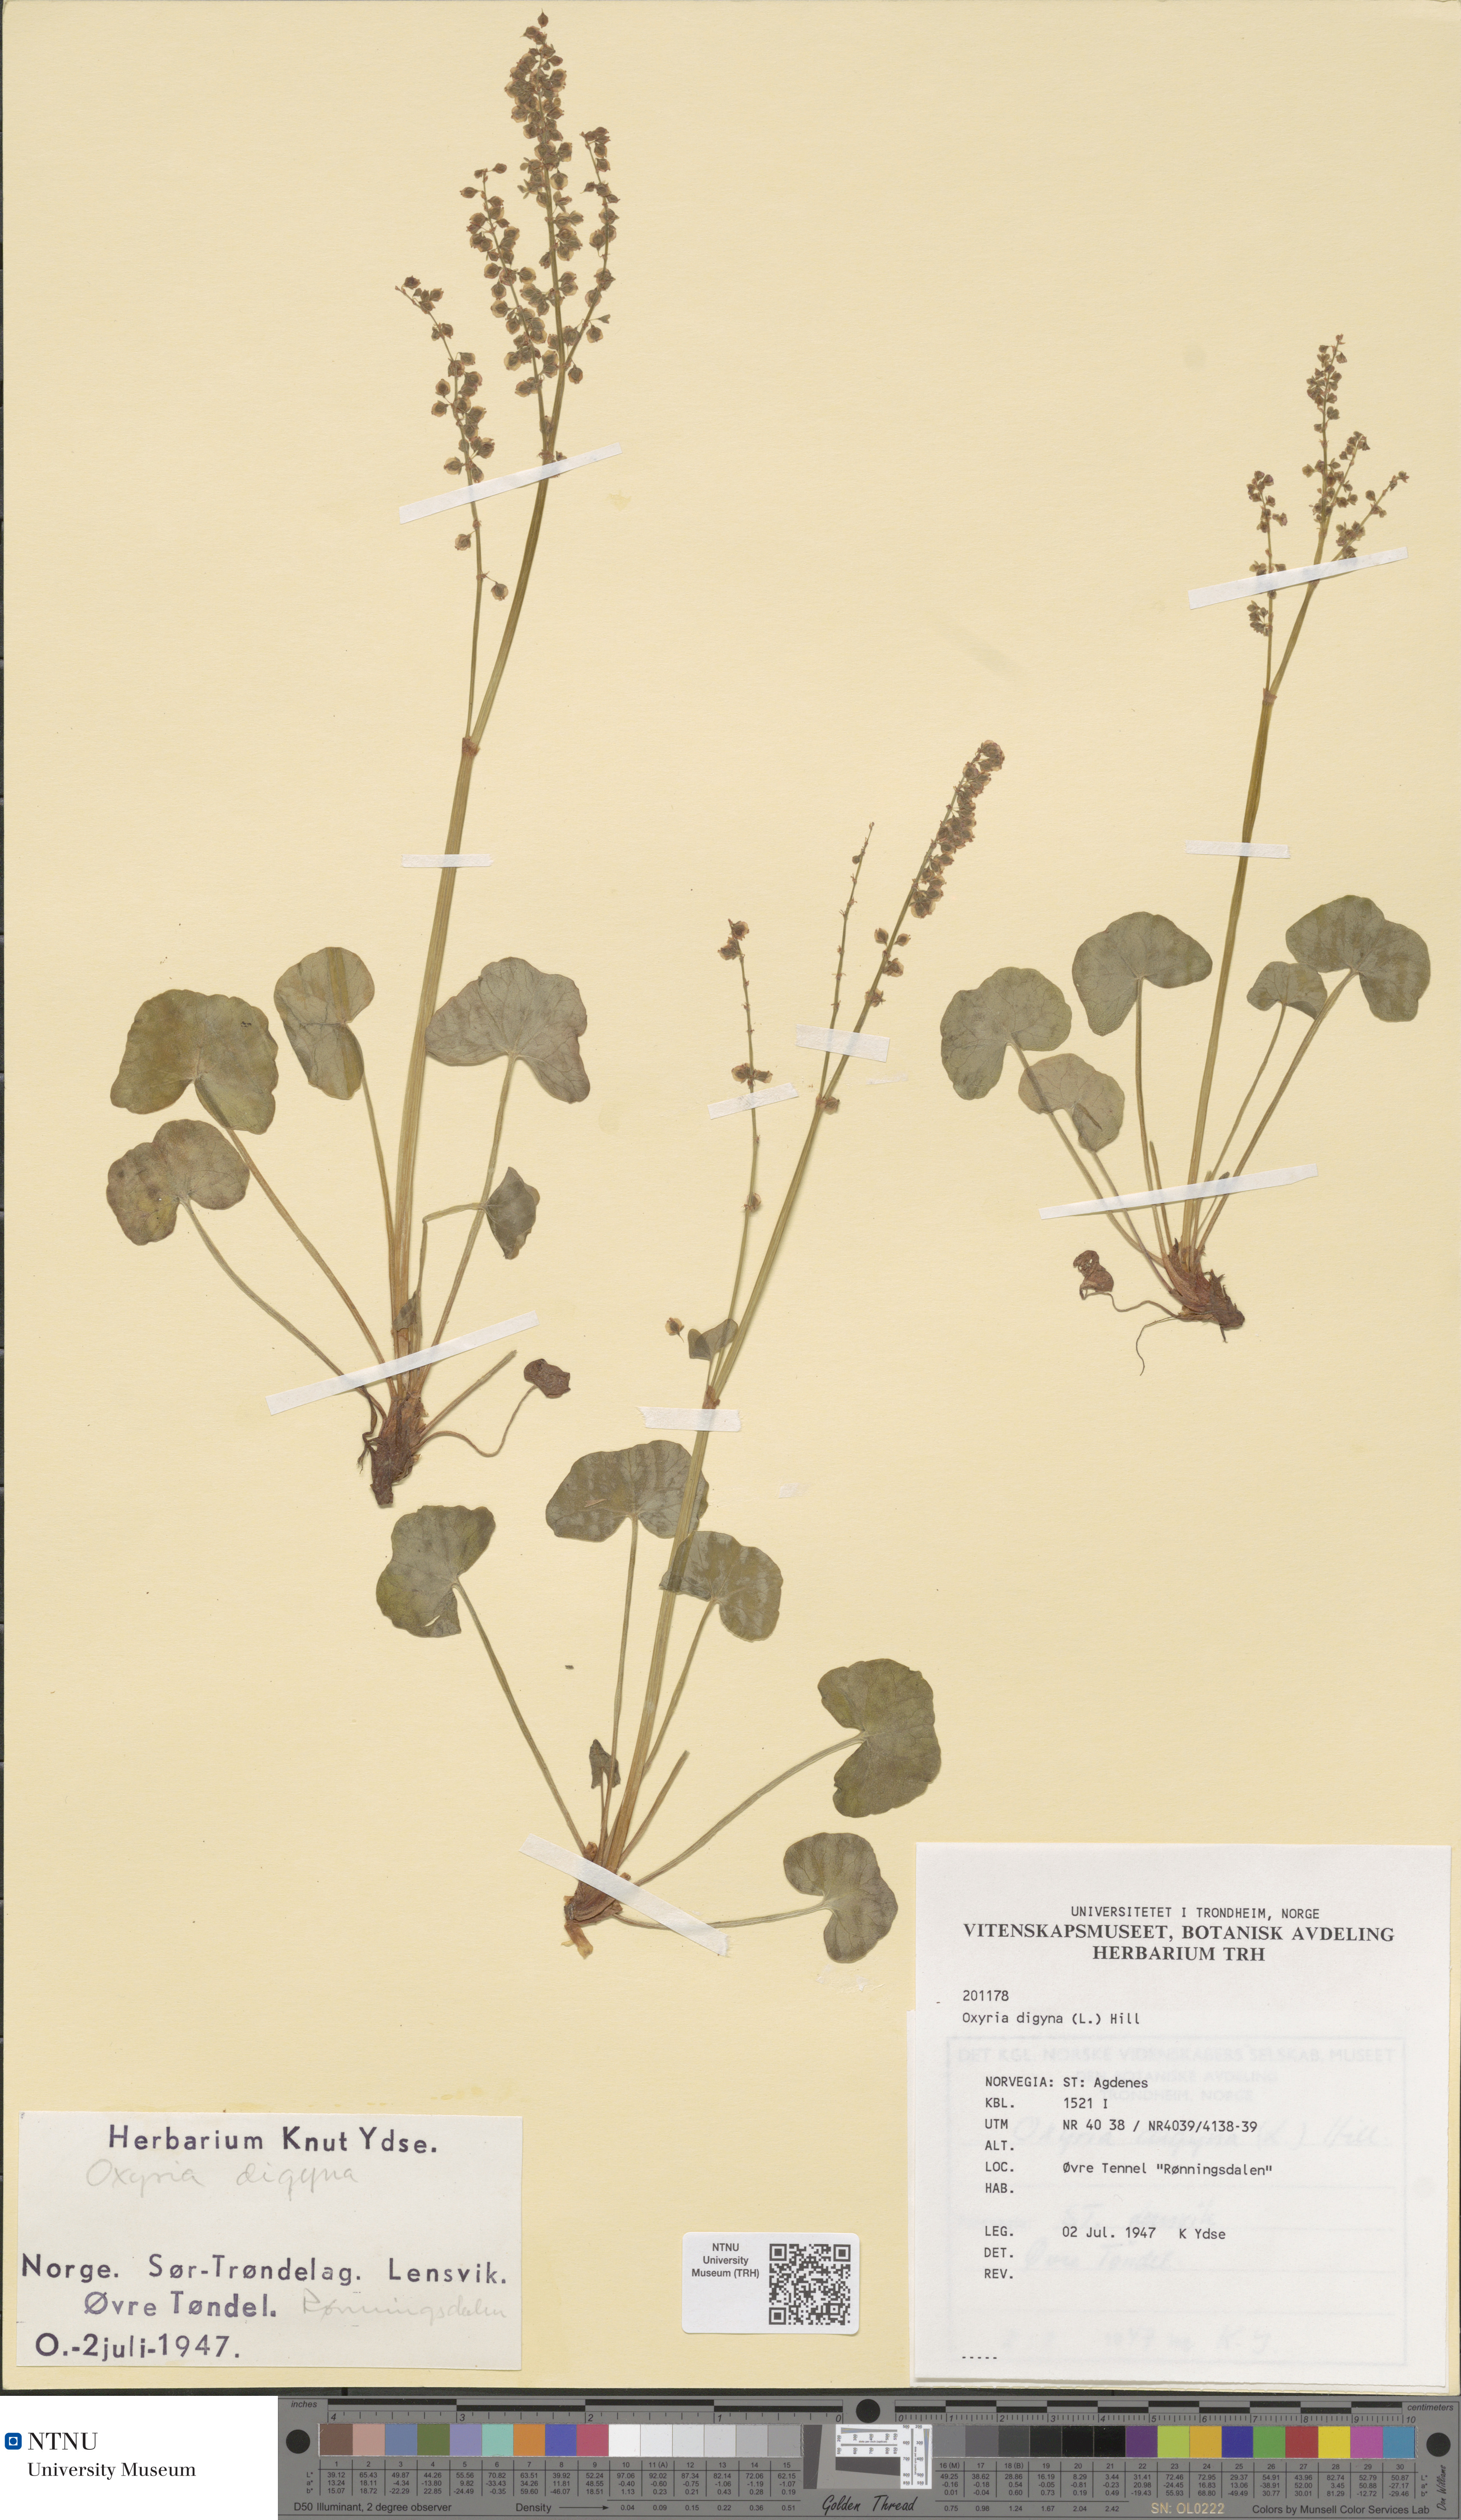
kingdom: Plantae
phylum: Tracheophyta
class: Magnoliopsida
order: Caryophyllales
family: Polygonaceae
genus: Oxyria
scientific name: Oxyria digyna
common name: Alpine mountain-sorrel
